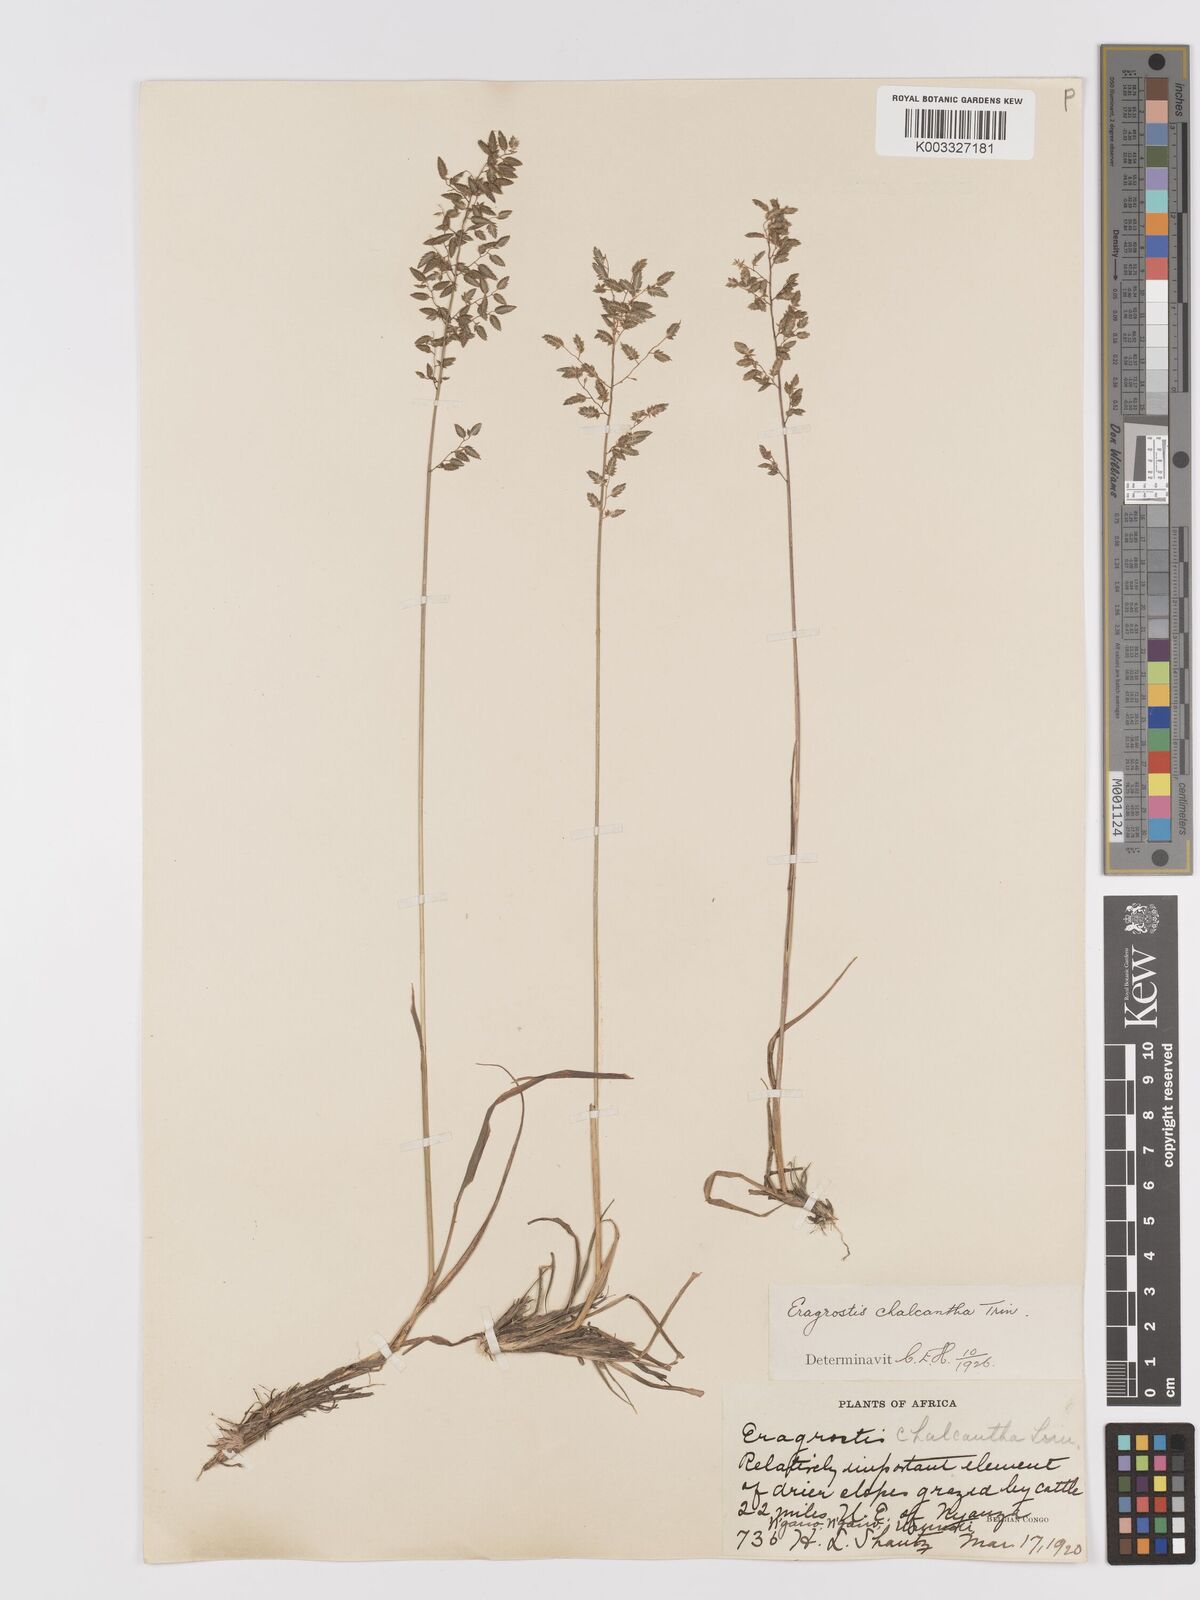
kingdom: Plantae
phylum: Tracheophyta
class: Liliopsida
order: Poales
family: Poaceae
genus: Eragrostis
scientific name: Eragrostis racemosa
